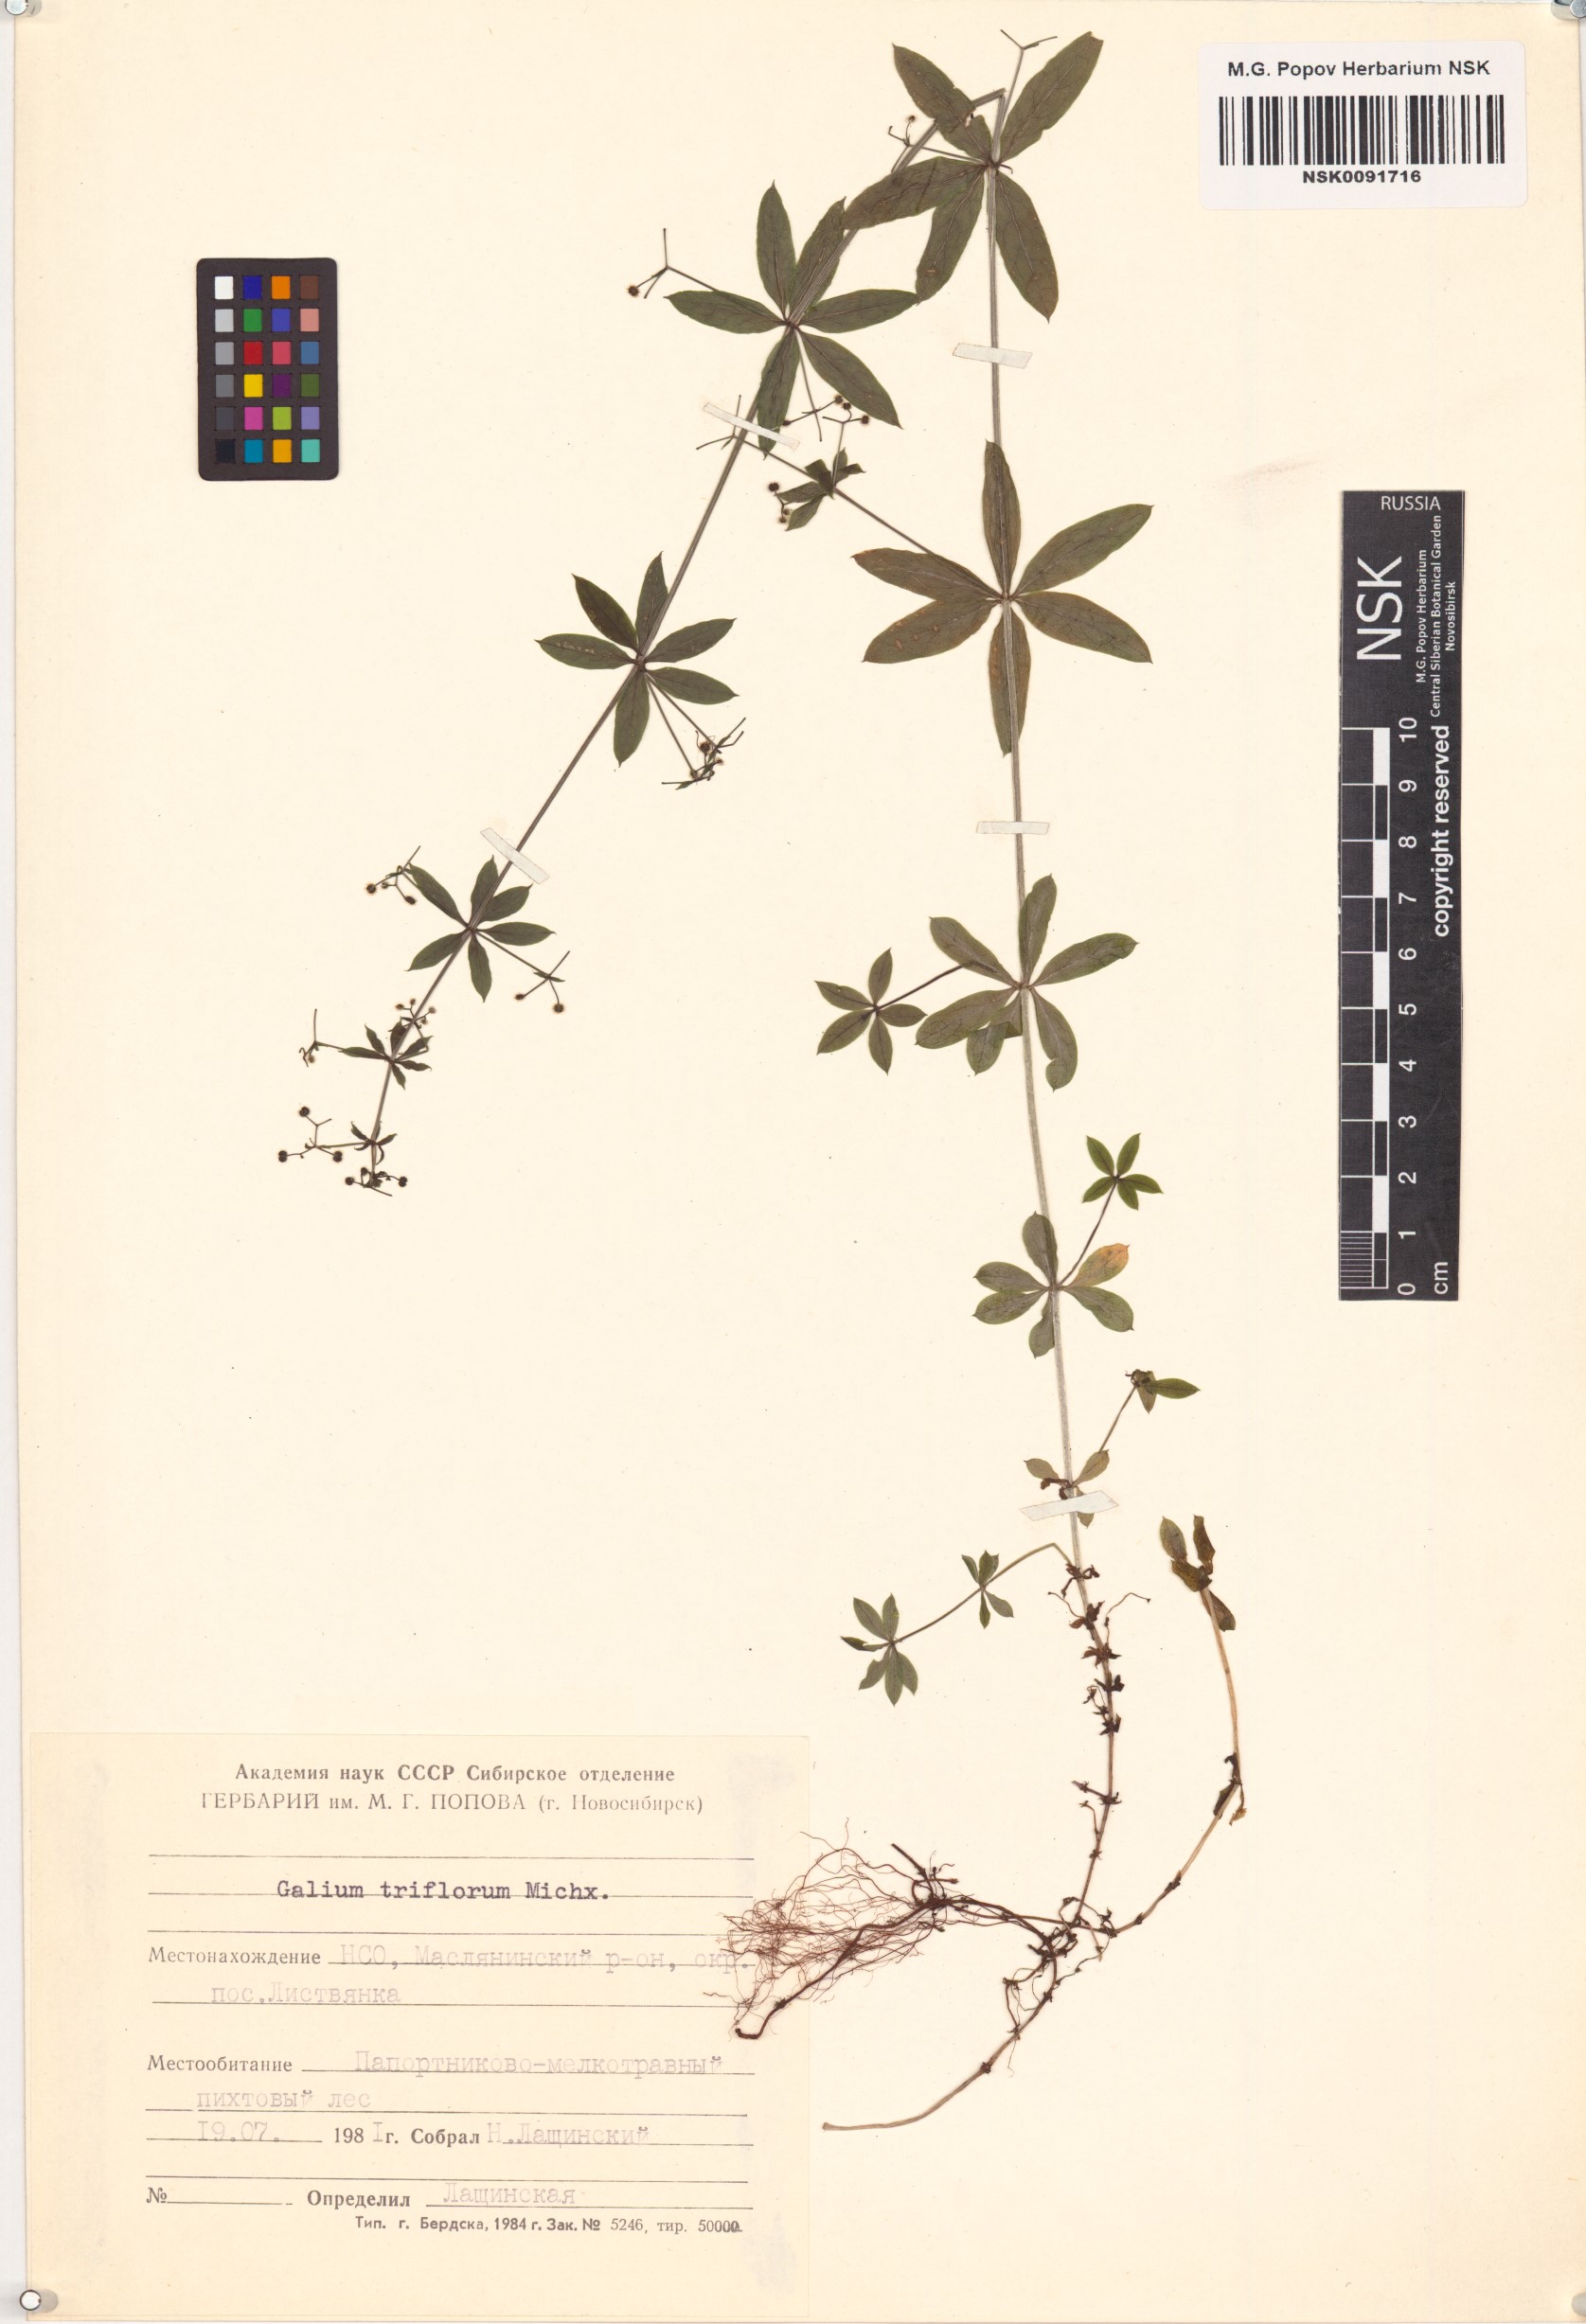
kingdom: Plantae
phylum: Tracheophyta
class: Magnoliopsida
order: Gentianales
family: Rubiaceae
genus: Galium
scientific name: Galium triflorum
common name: Fragrant bedstraw
